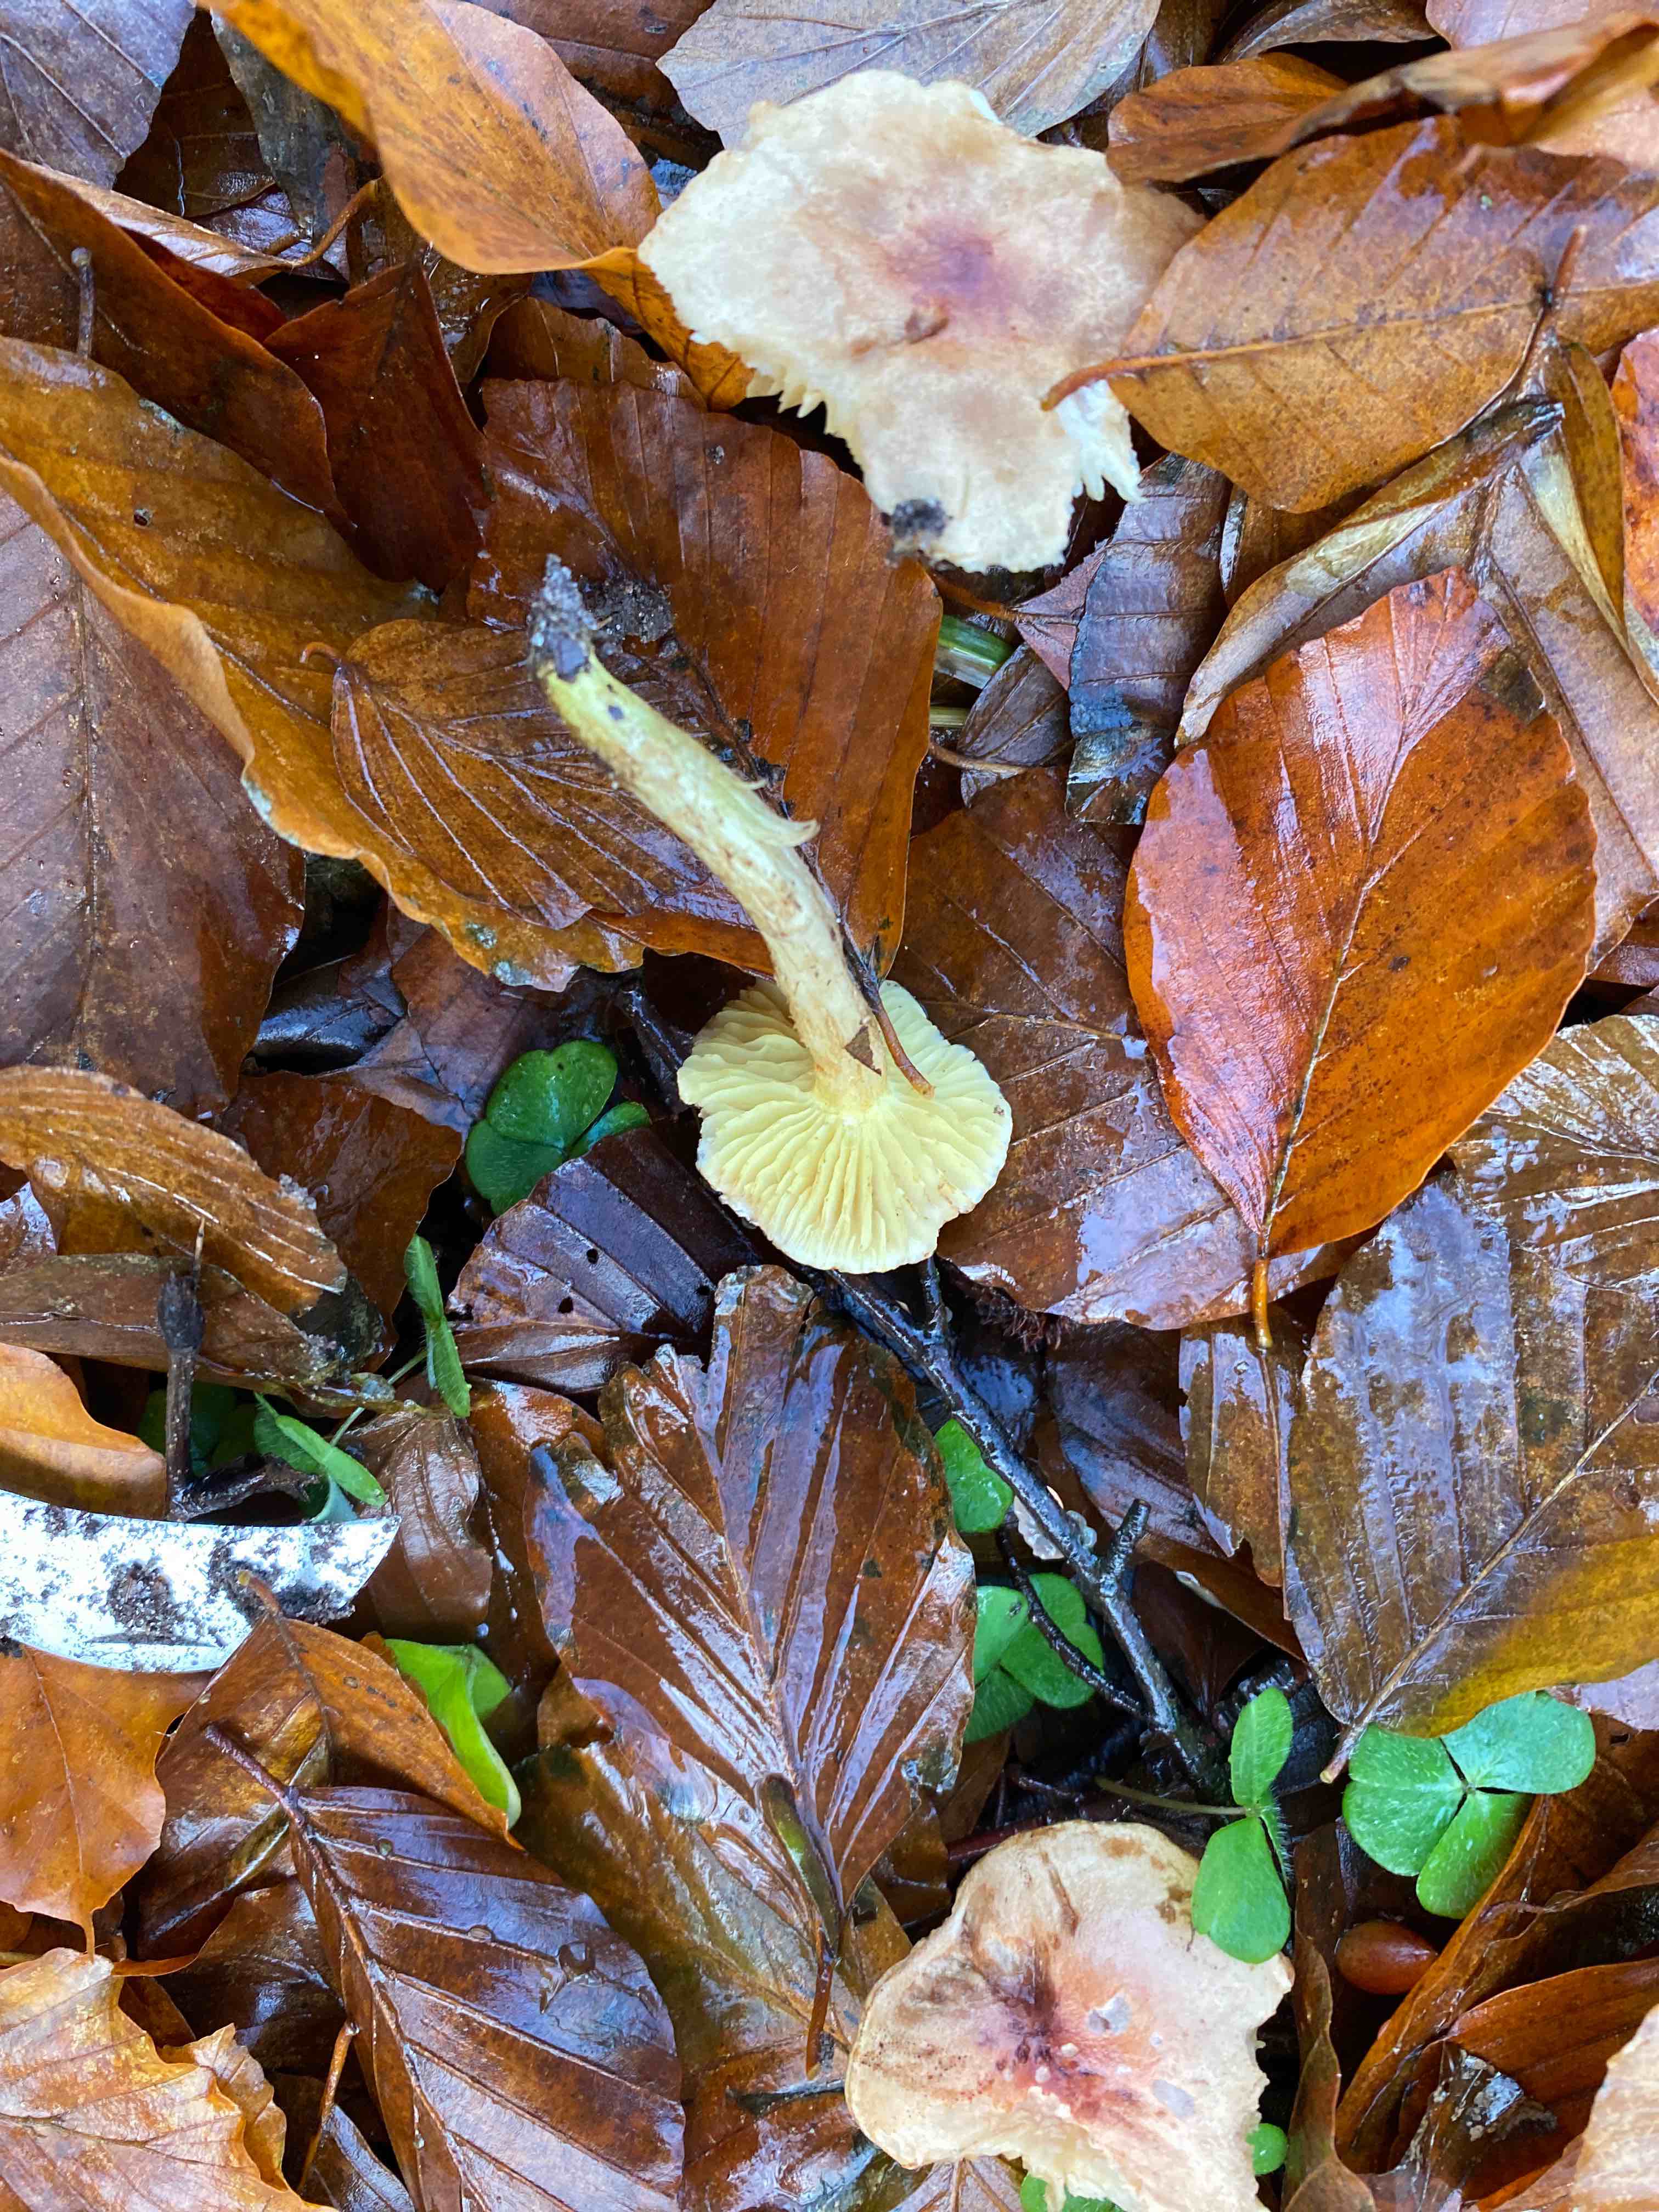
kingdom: Fungi
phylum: Basidiomycota
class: Agaricomycetes
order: Agaricales
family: Tricholomataceae
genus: Tricholoma
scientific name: Tricholoma sulphureum
